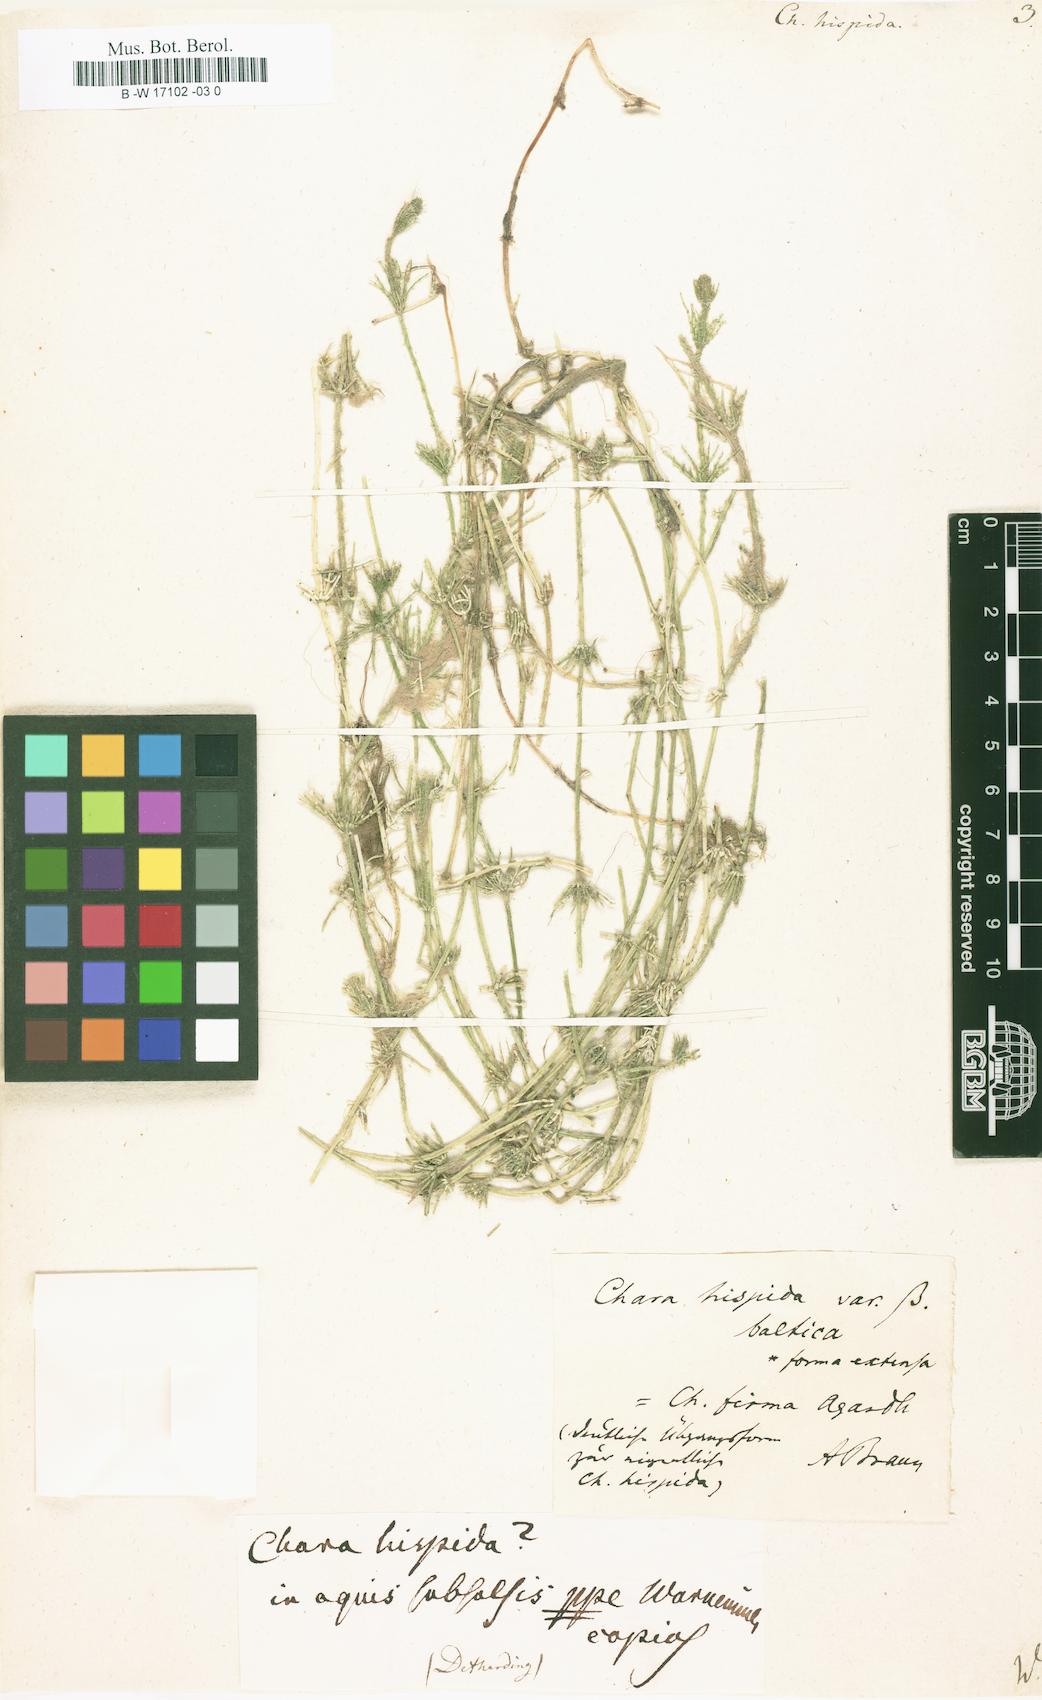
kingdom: Plantae
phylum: Charophyta
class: Charophyceae
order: Charales
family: Characeae
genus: Chara
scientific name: Chara hispida
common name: Bristly stonewort
